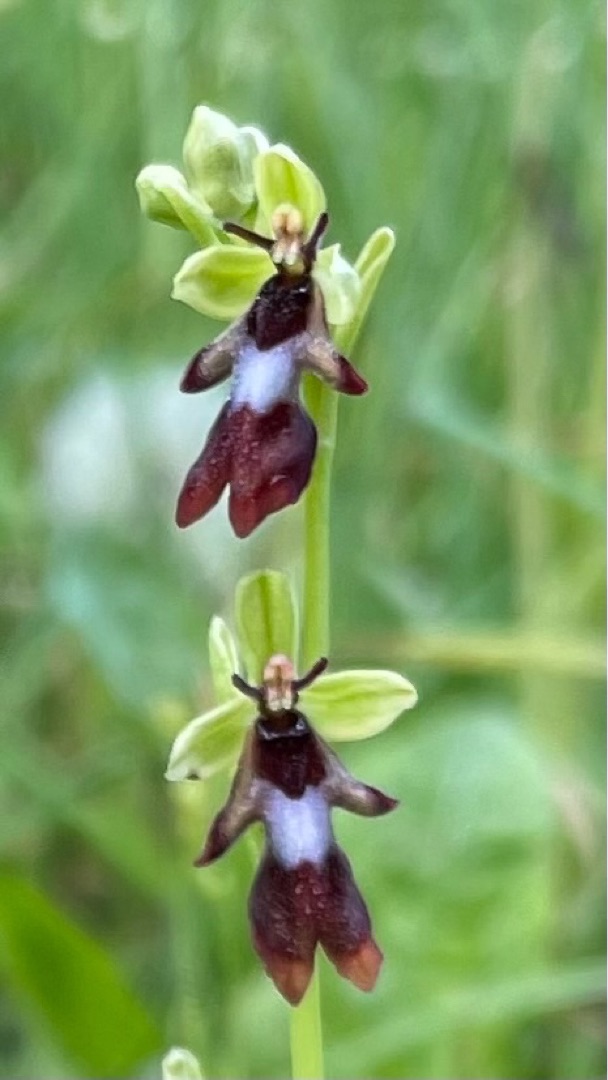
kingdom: Plantae
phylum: Tracheophyta
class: Liliopsida
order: Asparagales
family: Orchidaceae
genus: Ophrys
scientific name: Ophrys insectifera
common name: Flueblomst
